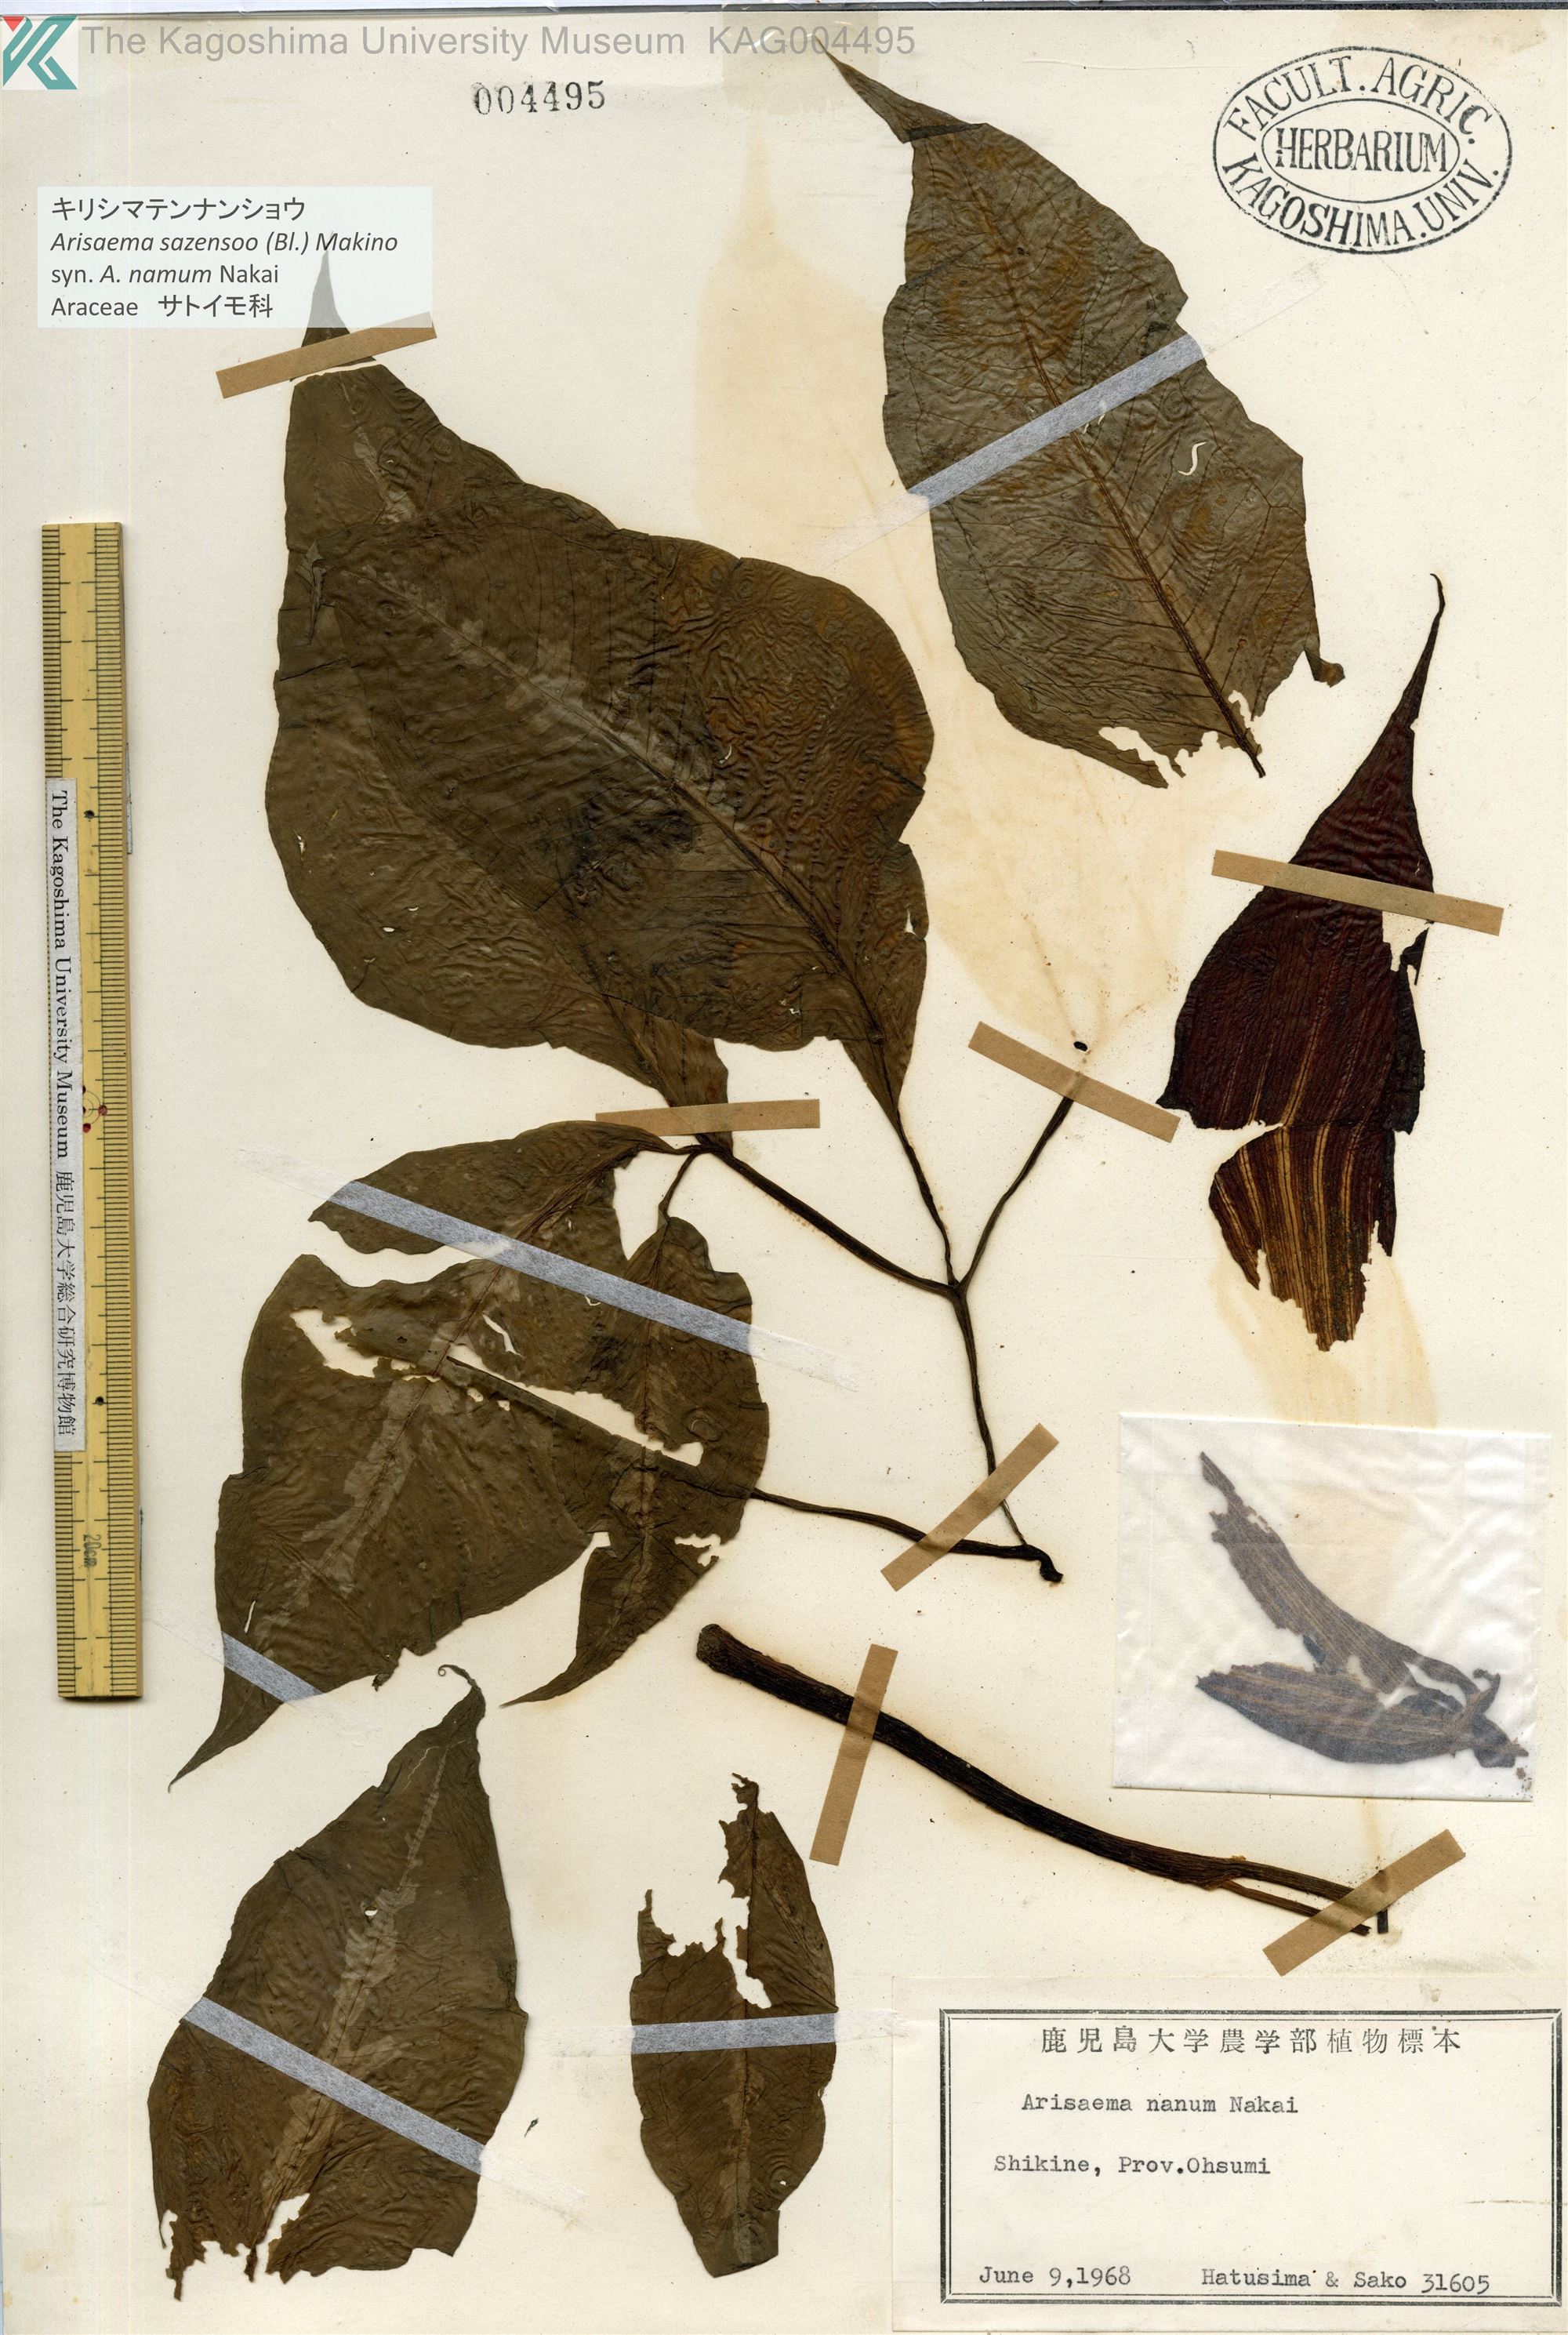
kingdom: Plantae
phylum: Tracheophyta
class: Liliopsida
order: Alismatales
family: Araceae
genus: Arisaema
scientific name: Arisaema sazensoo
